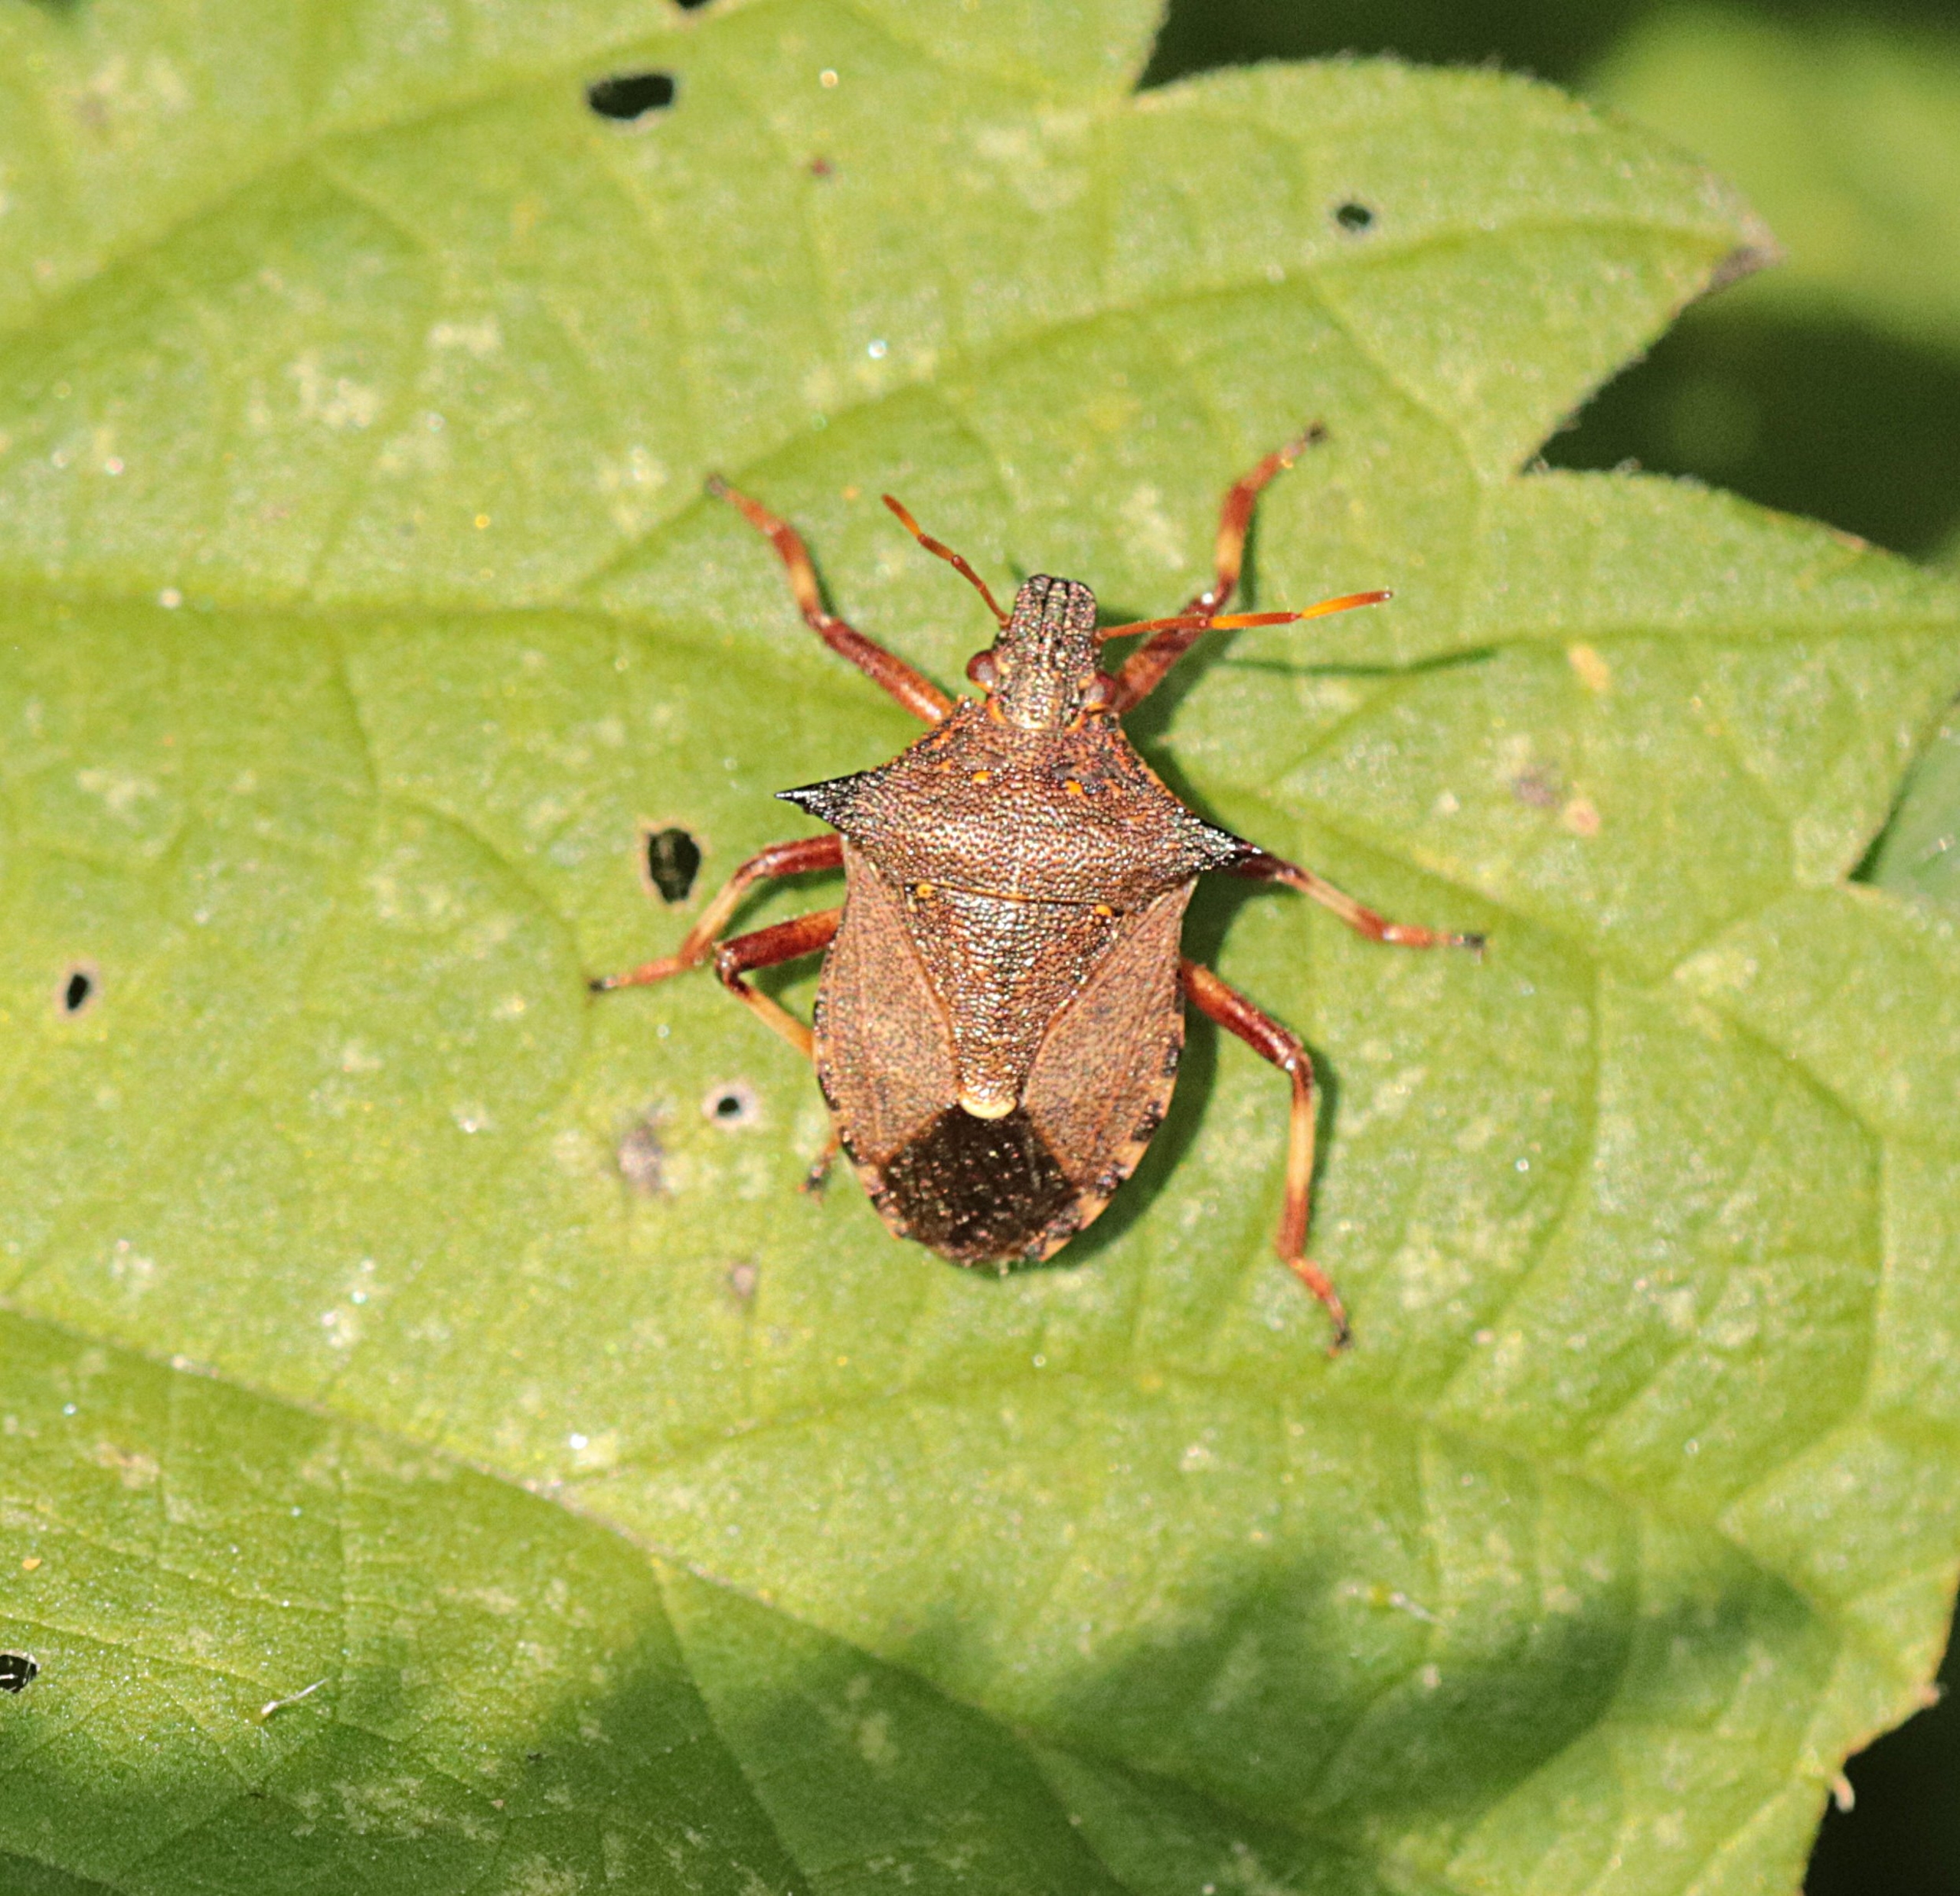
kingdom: Animalia
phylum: Arthropoda
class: Insecta
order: Hemiptera
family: Pentatomidae
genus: Picromerus
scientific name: Picromerus bidens
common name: Torntæge
